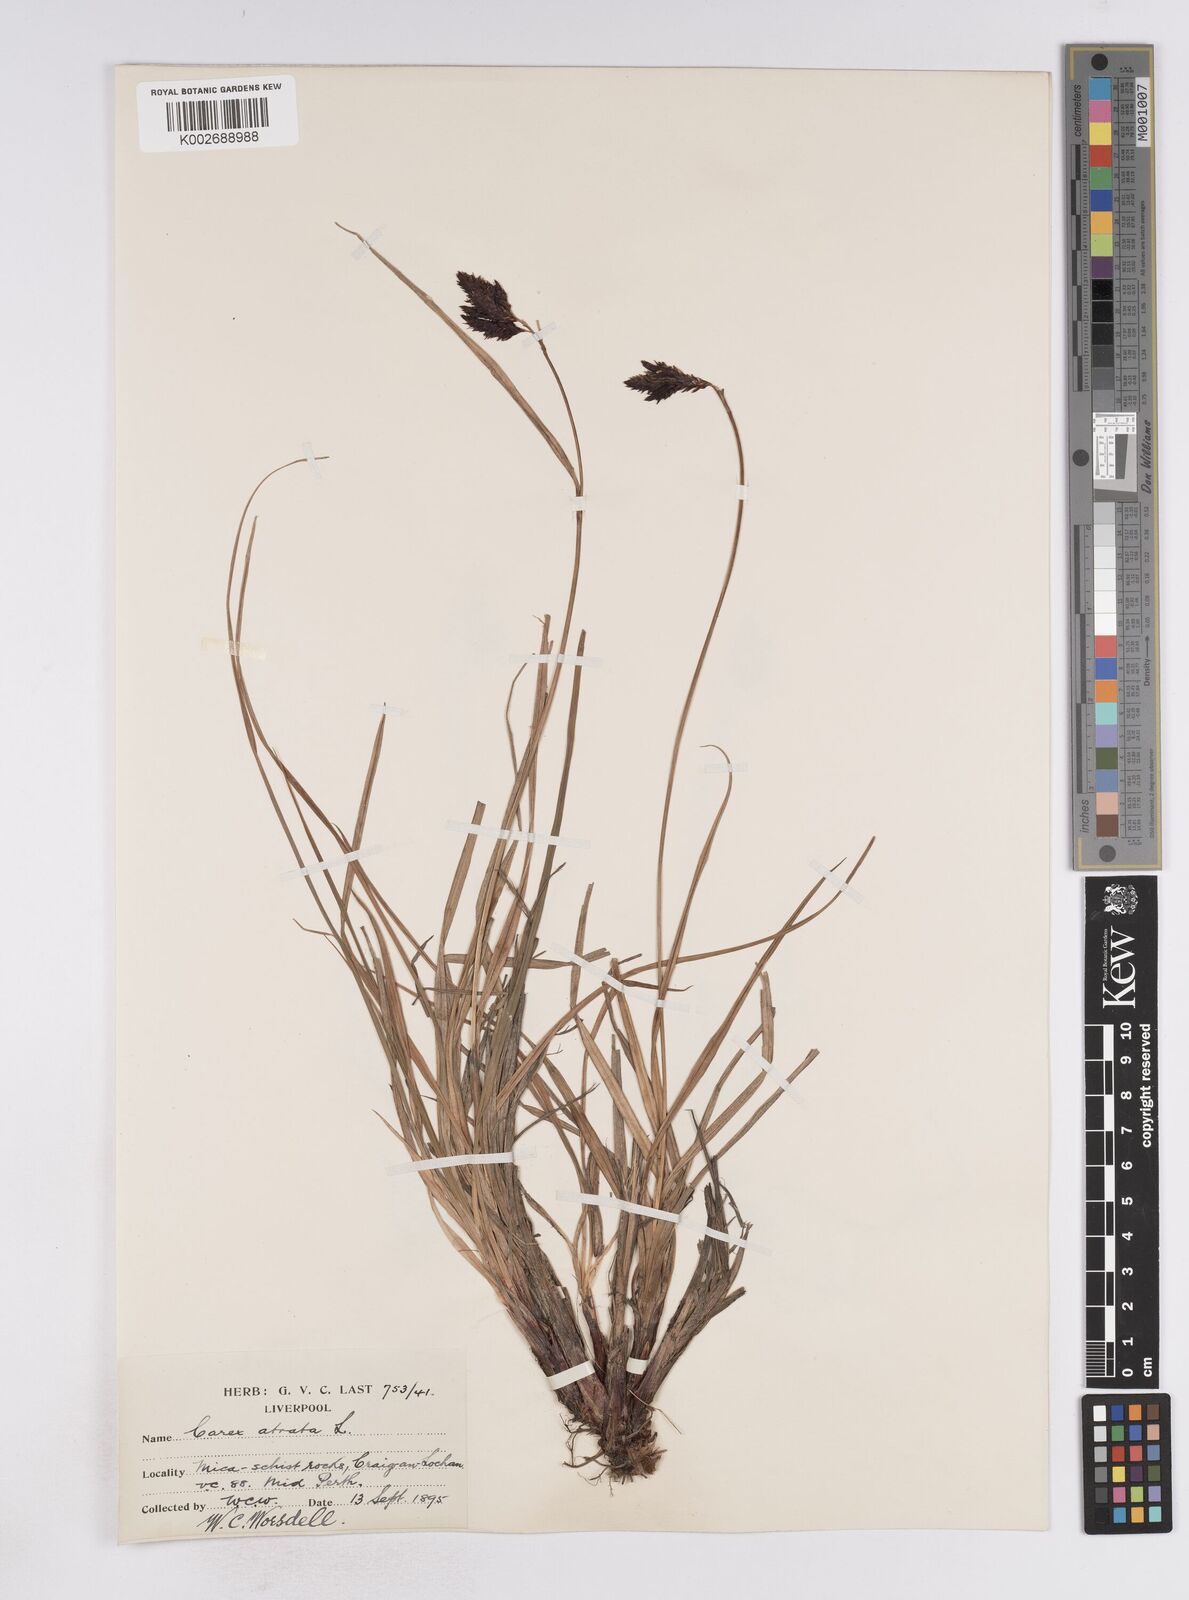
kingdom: Plantae
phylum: Tracheophyta
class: Liliopsida
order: Poales
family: Cyperaceae
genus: Carex
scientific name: Carex atrata
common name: Black alpine sedge
